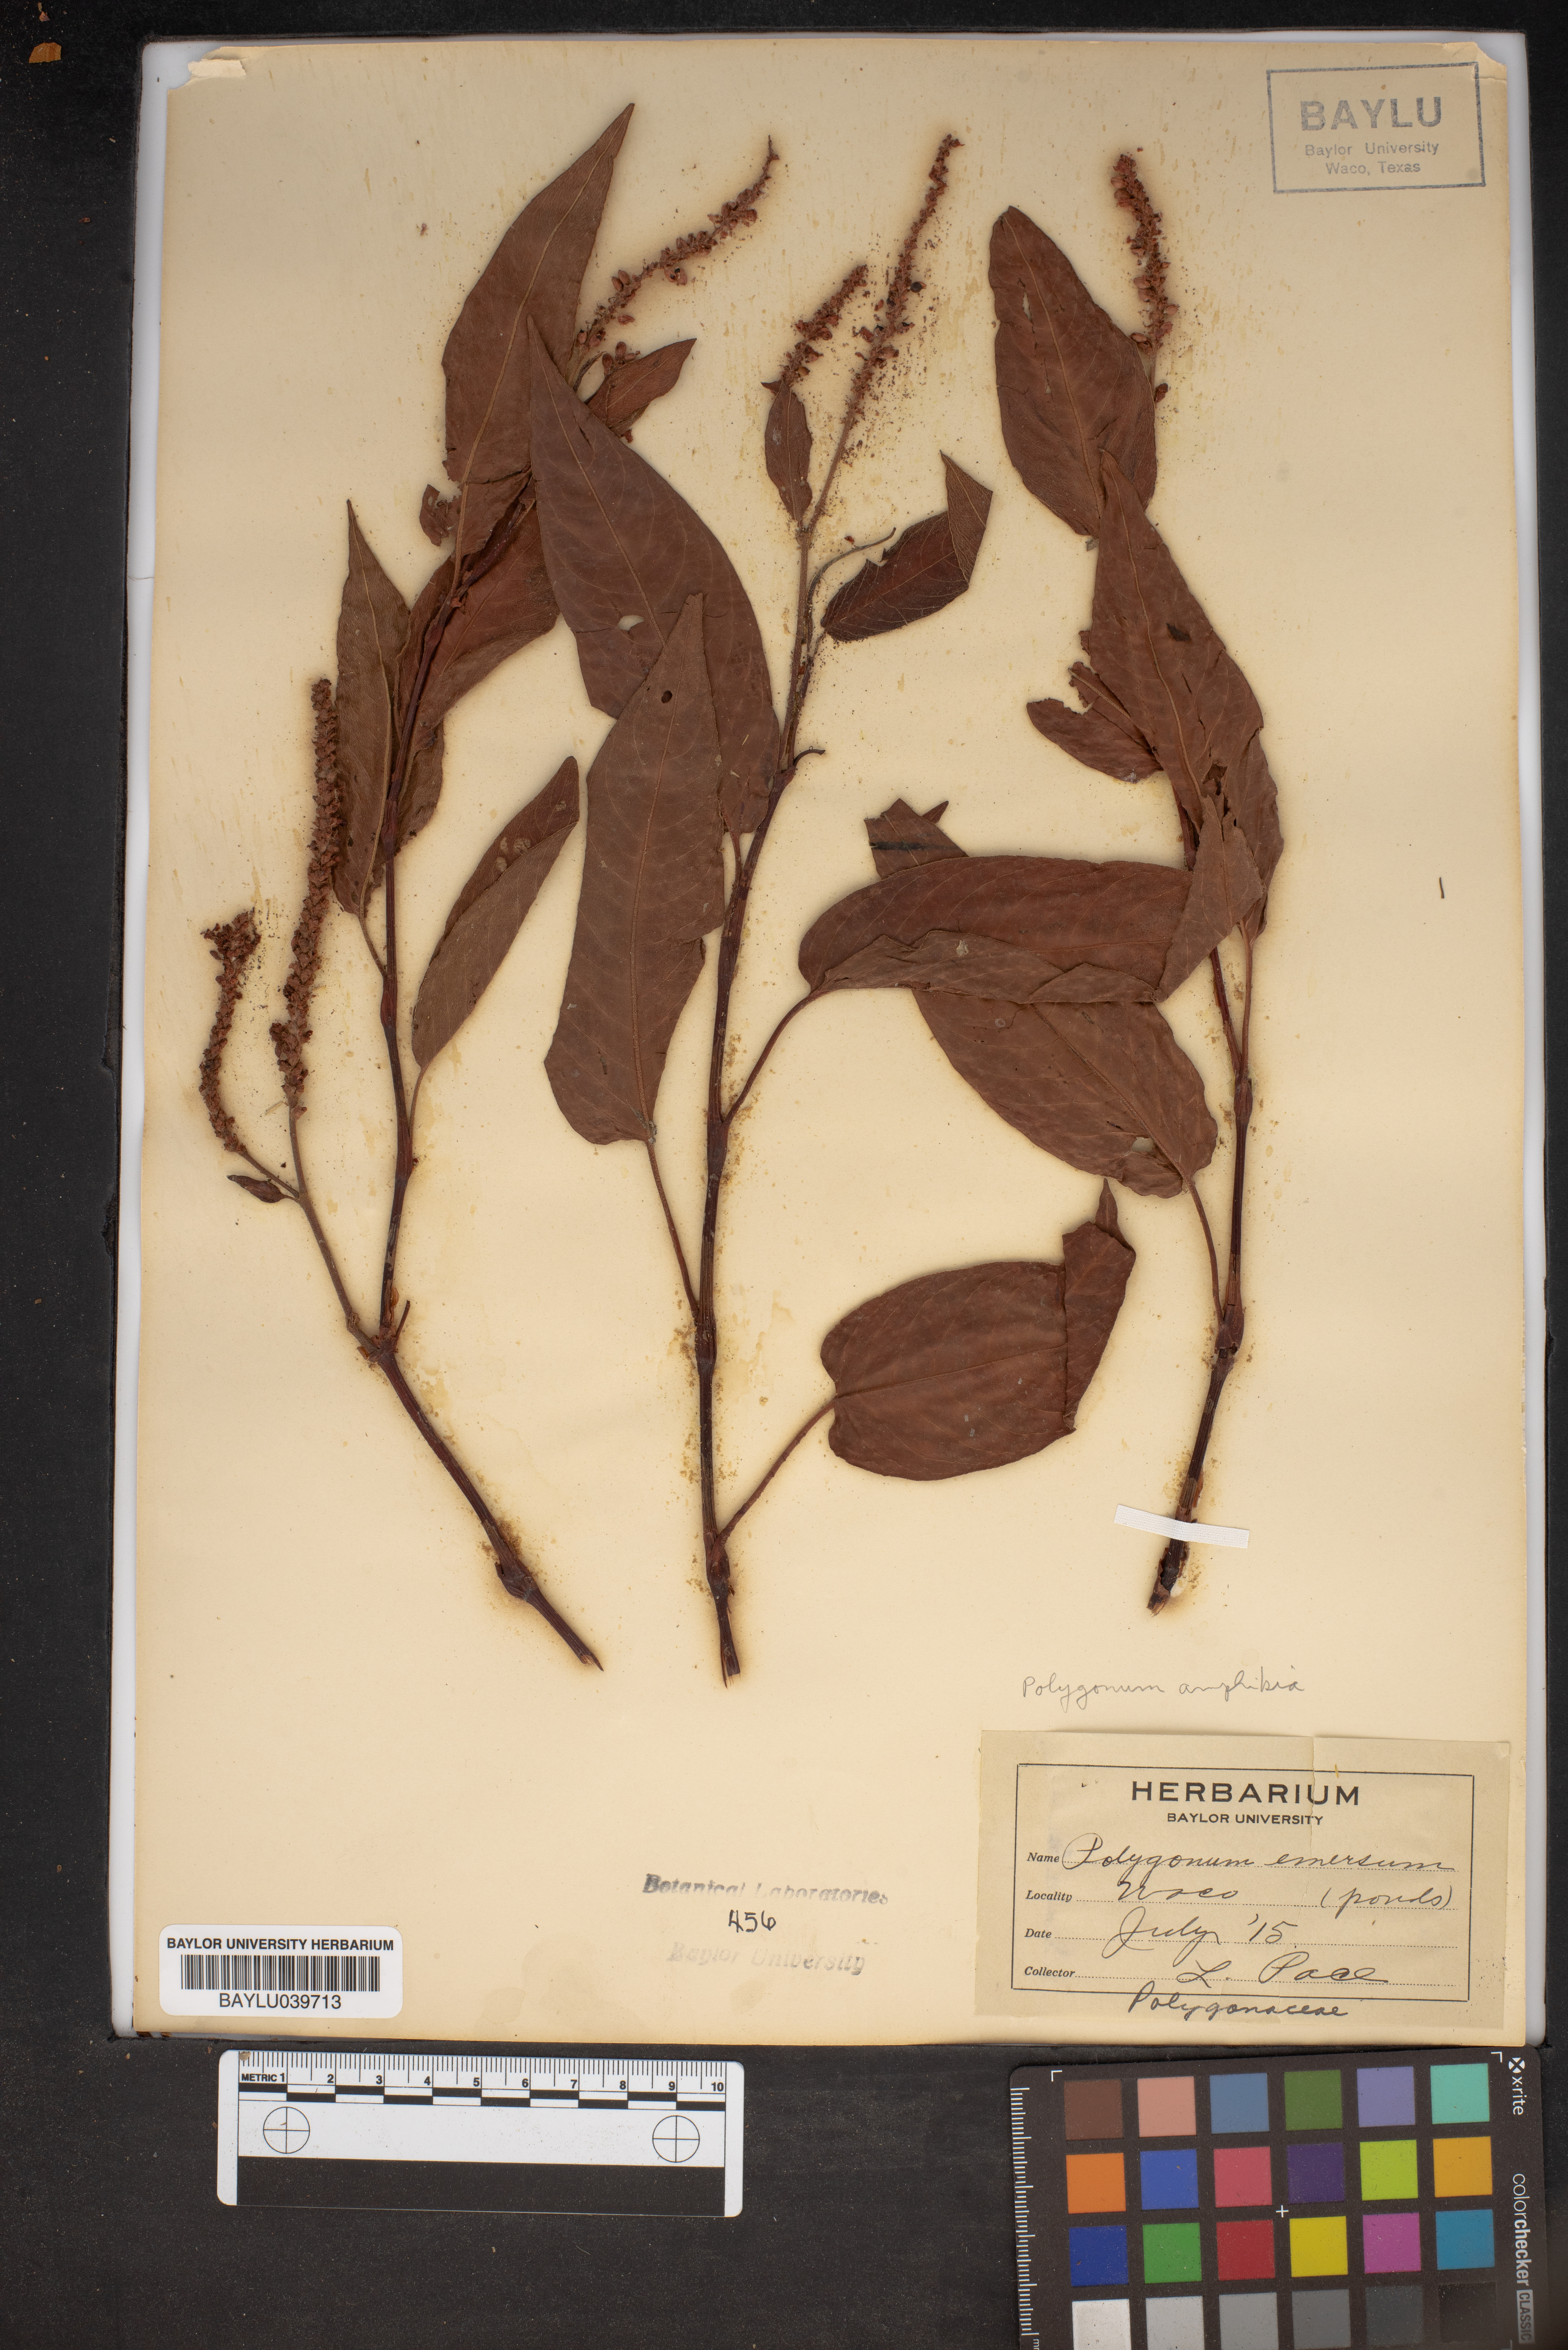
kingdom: Plantae
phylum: Tracheophyta
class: Magnoliopsida
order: Caryophyllales
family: Polygonaceae
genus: Persicaria
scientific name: Persicaria amphibia
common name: Amphibious bistort
